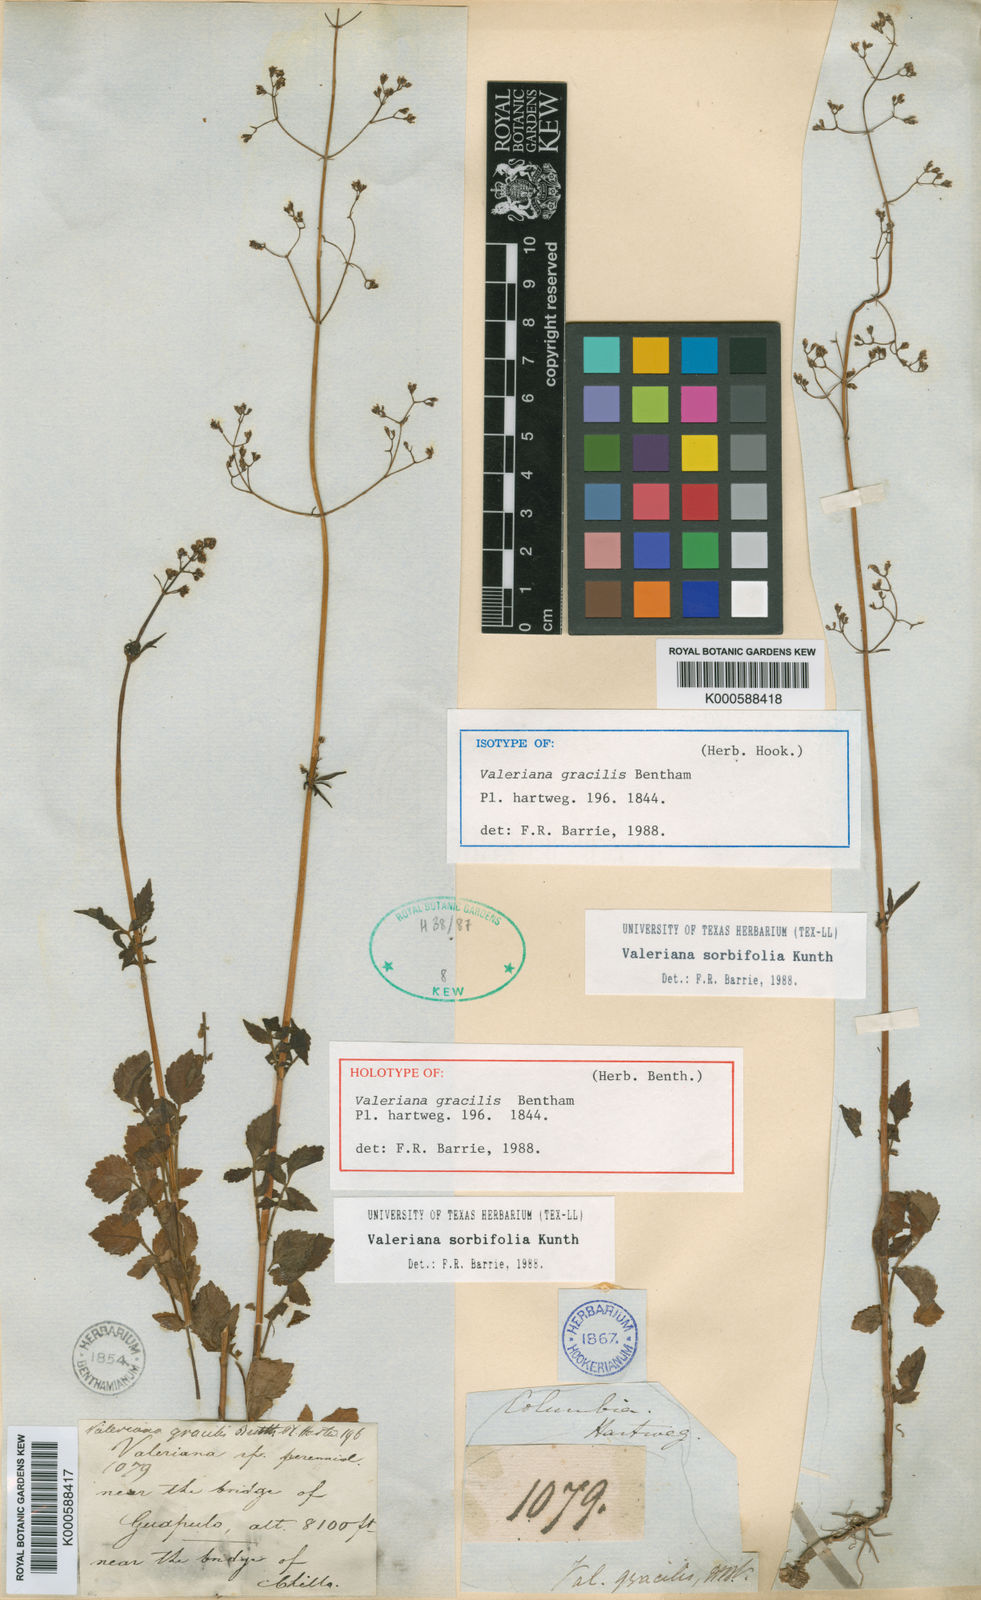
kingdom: Plantae
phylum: Tracheophyta
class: Magnoliopsida
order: Dipsacales
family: Caprifoliaceae
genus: Valeriana
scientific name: Valeriana sorbifolia
